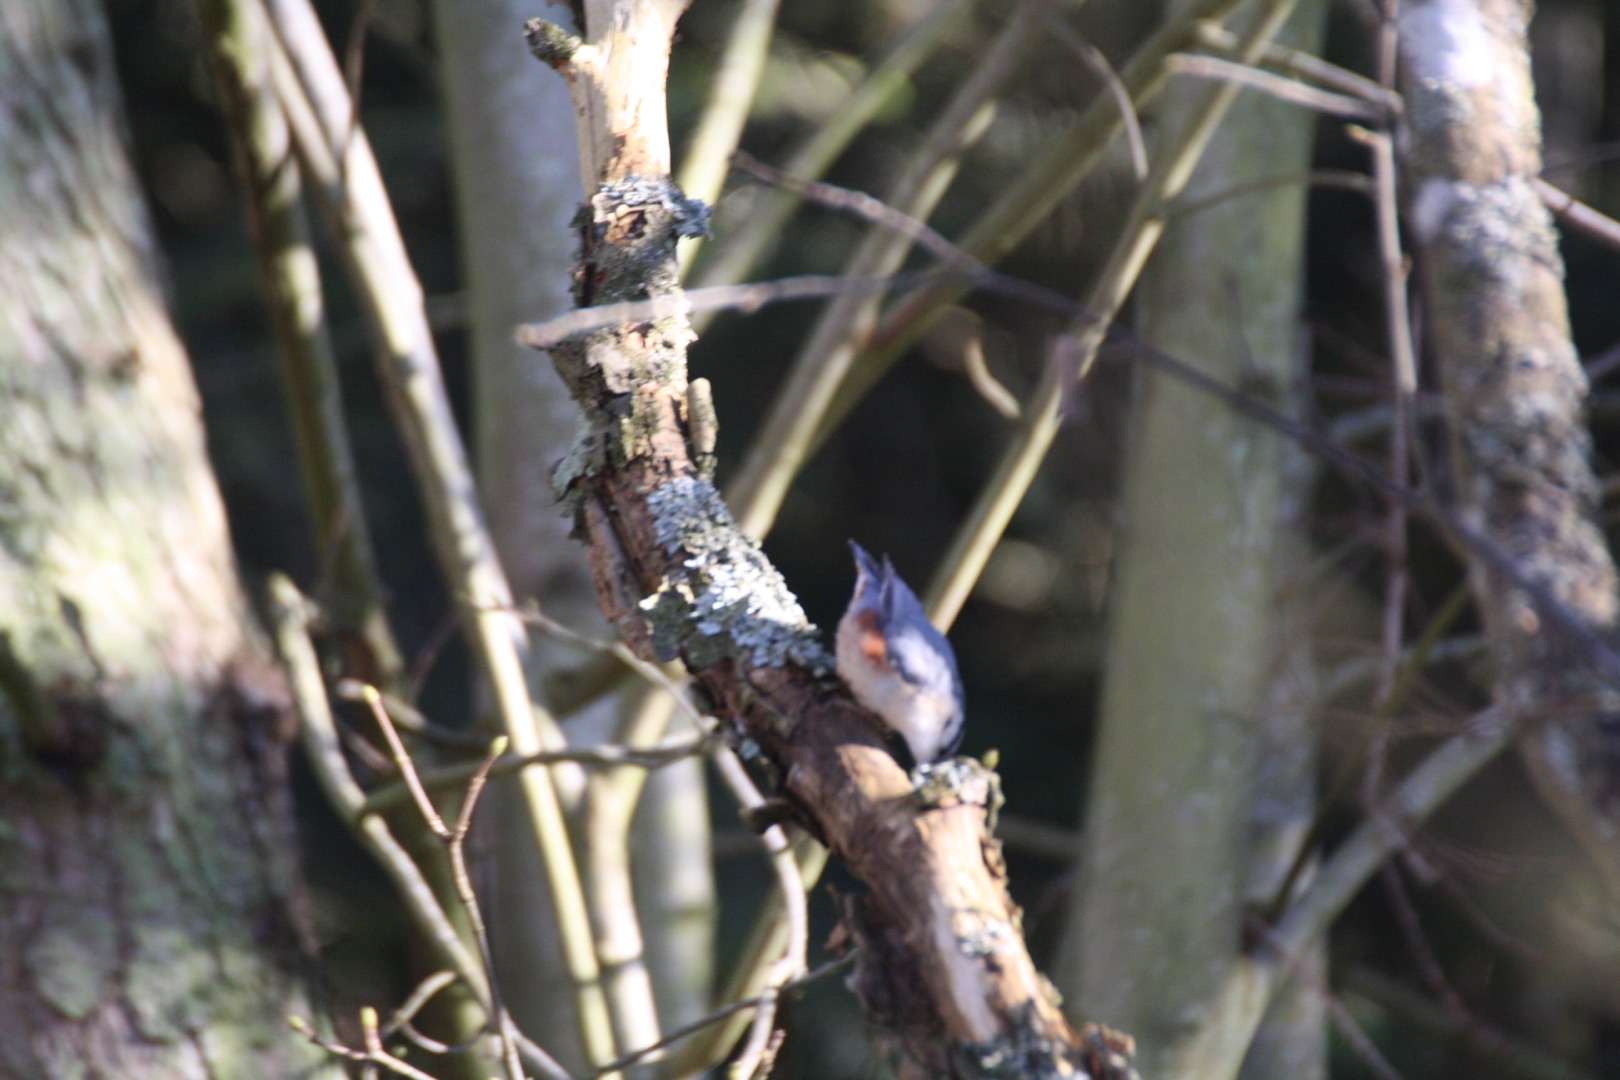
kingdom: Animalia
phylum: Chordata
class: Aves
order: Passeriformes
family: Sittidae
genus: Sitta
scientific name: Sitta europaea
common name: Spætmejse
